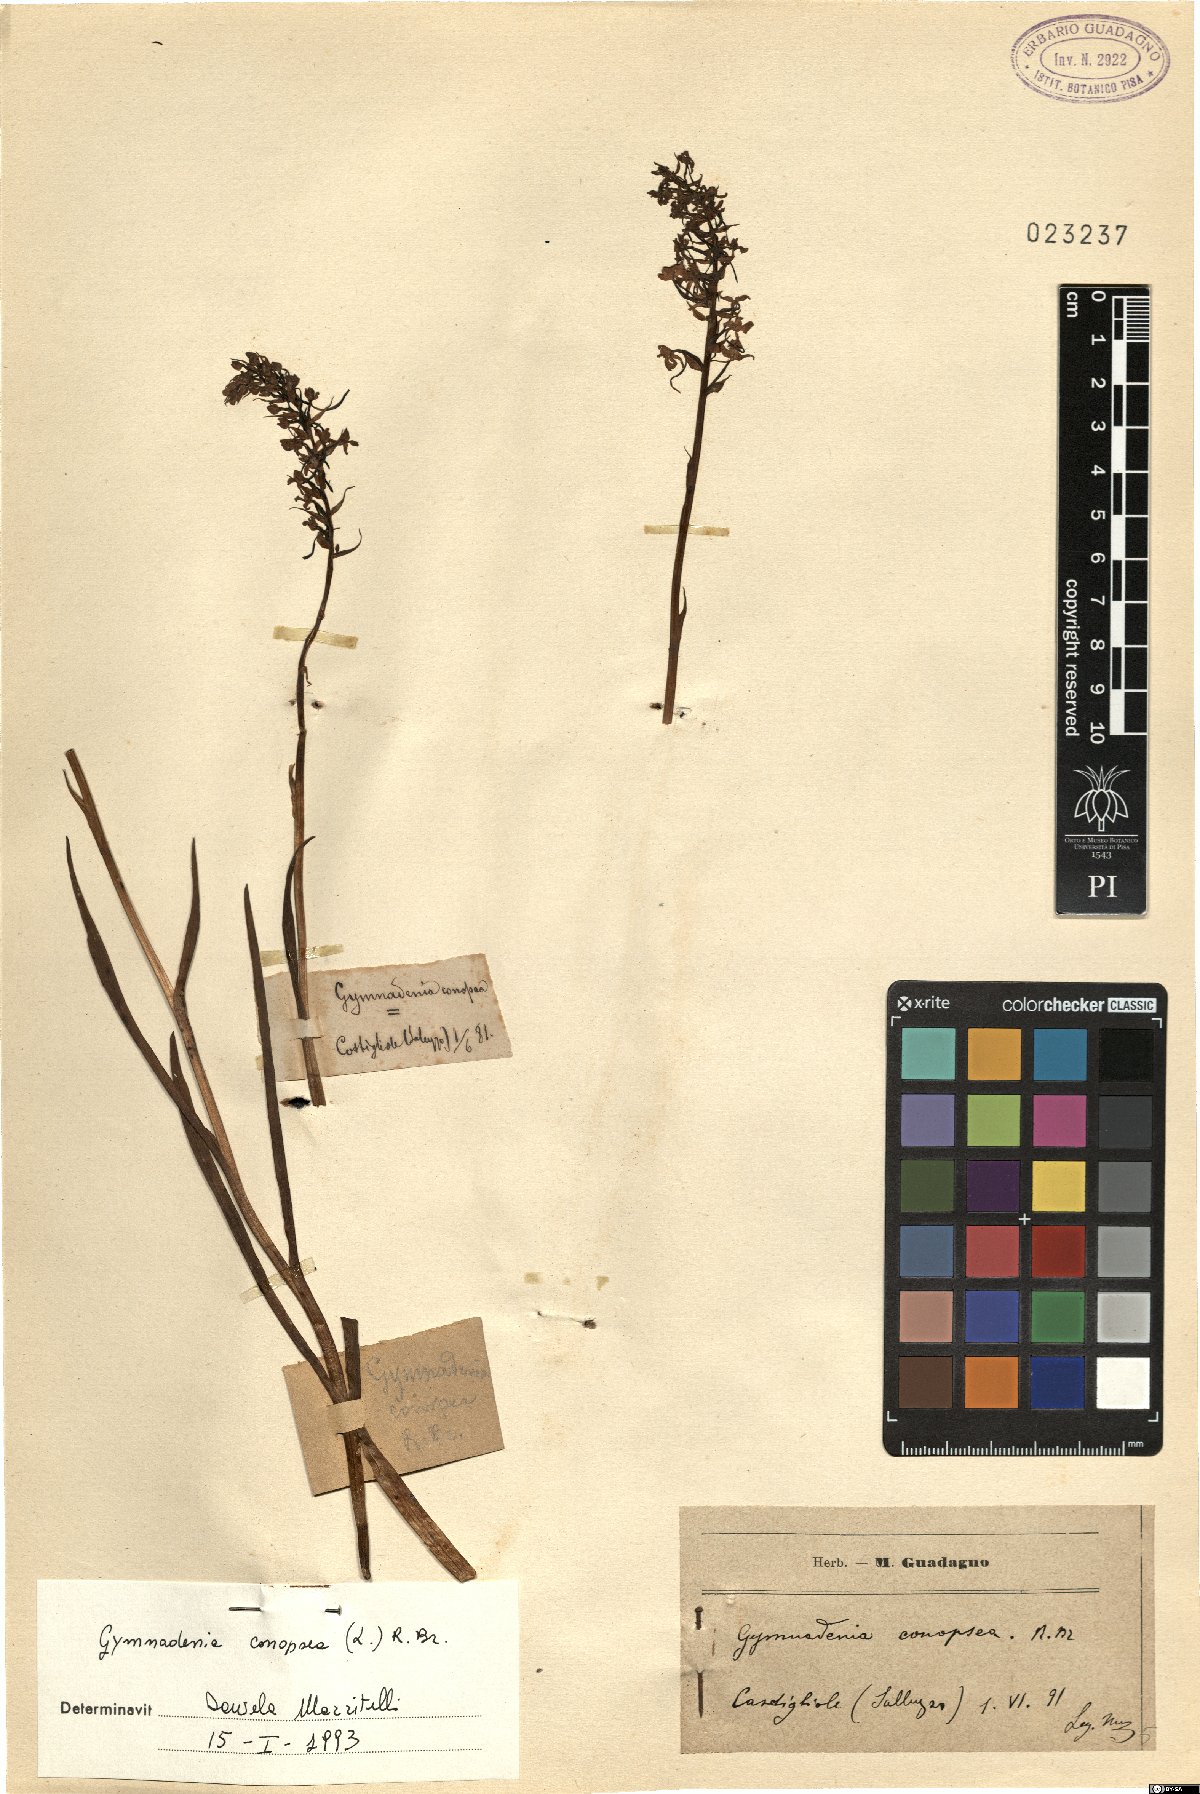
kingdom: Plantae
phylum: Tracheophyta
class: Liliopsida
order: Asparagales
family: Orchidaceae
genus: Gymnadenia
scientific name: Gymnadenia conopsea
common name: Fragrant orchid
